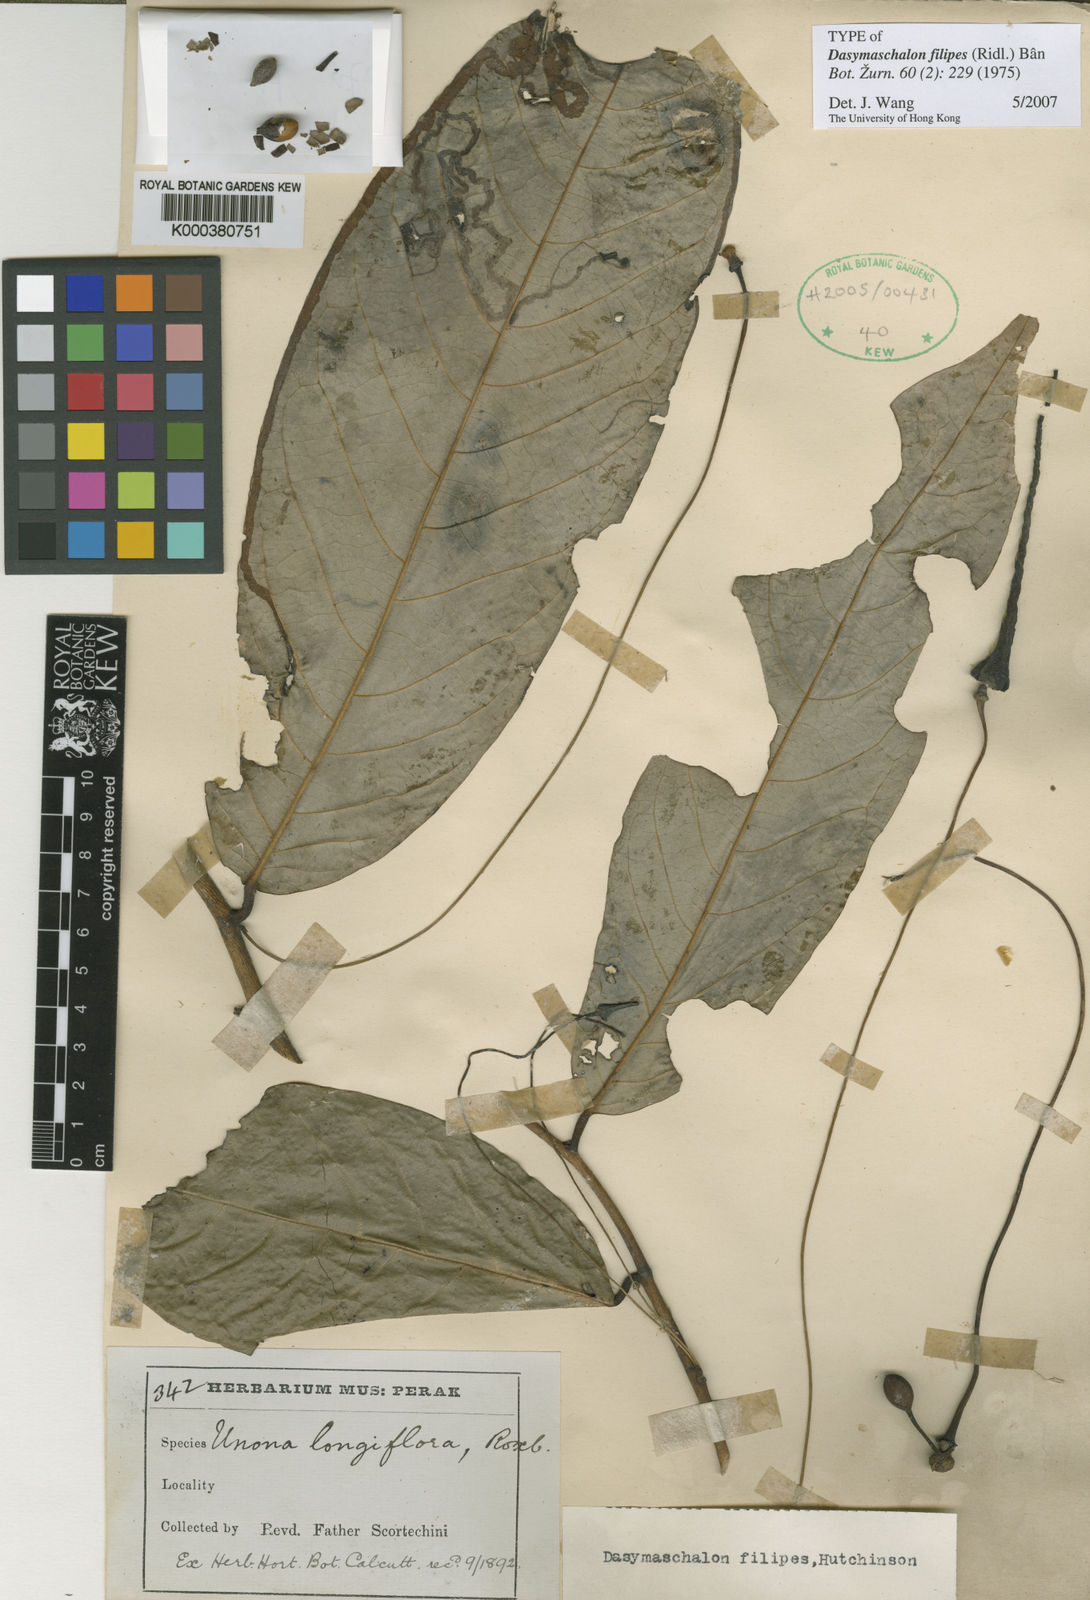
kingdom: Plantae
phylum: Tracheophyta
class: Magnoliopsida
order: Magnoliales
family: Annonaceae
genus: Dasymaschalon
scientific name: Dasymaschalon
